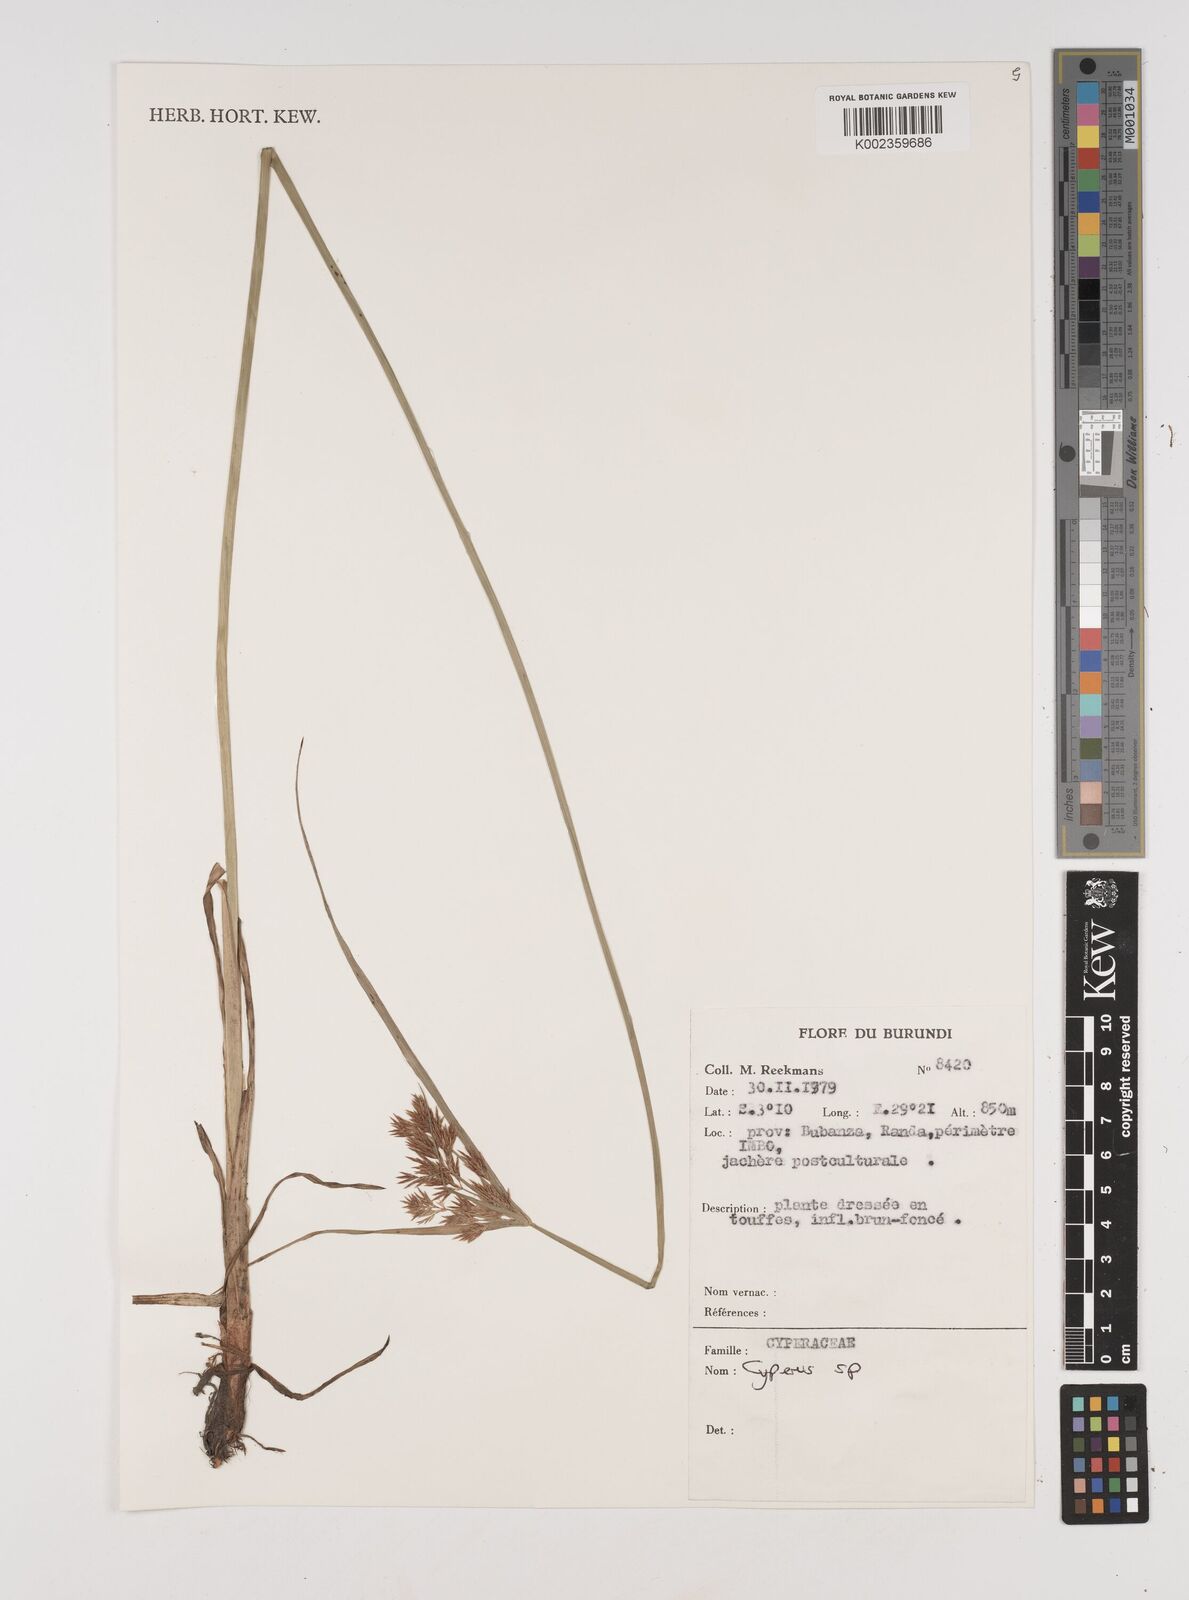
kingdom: Plantae
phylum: Tracheophyta
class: Liliopsida
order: Poales
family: Cyperaceae
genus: Cyperus
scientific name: Cyperus
